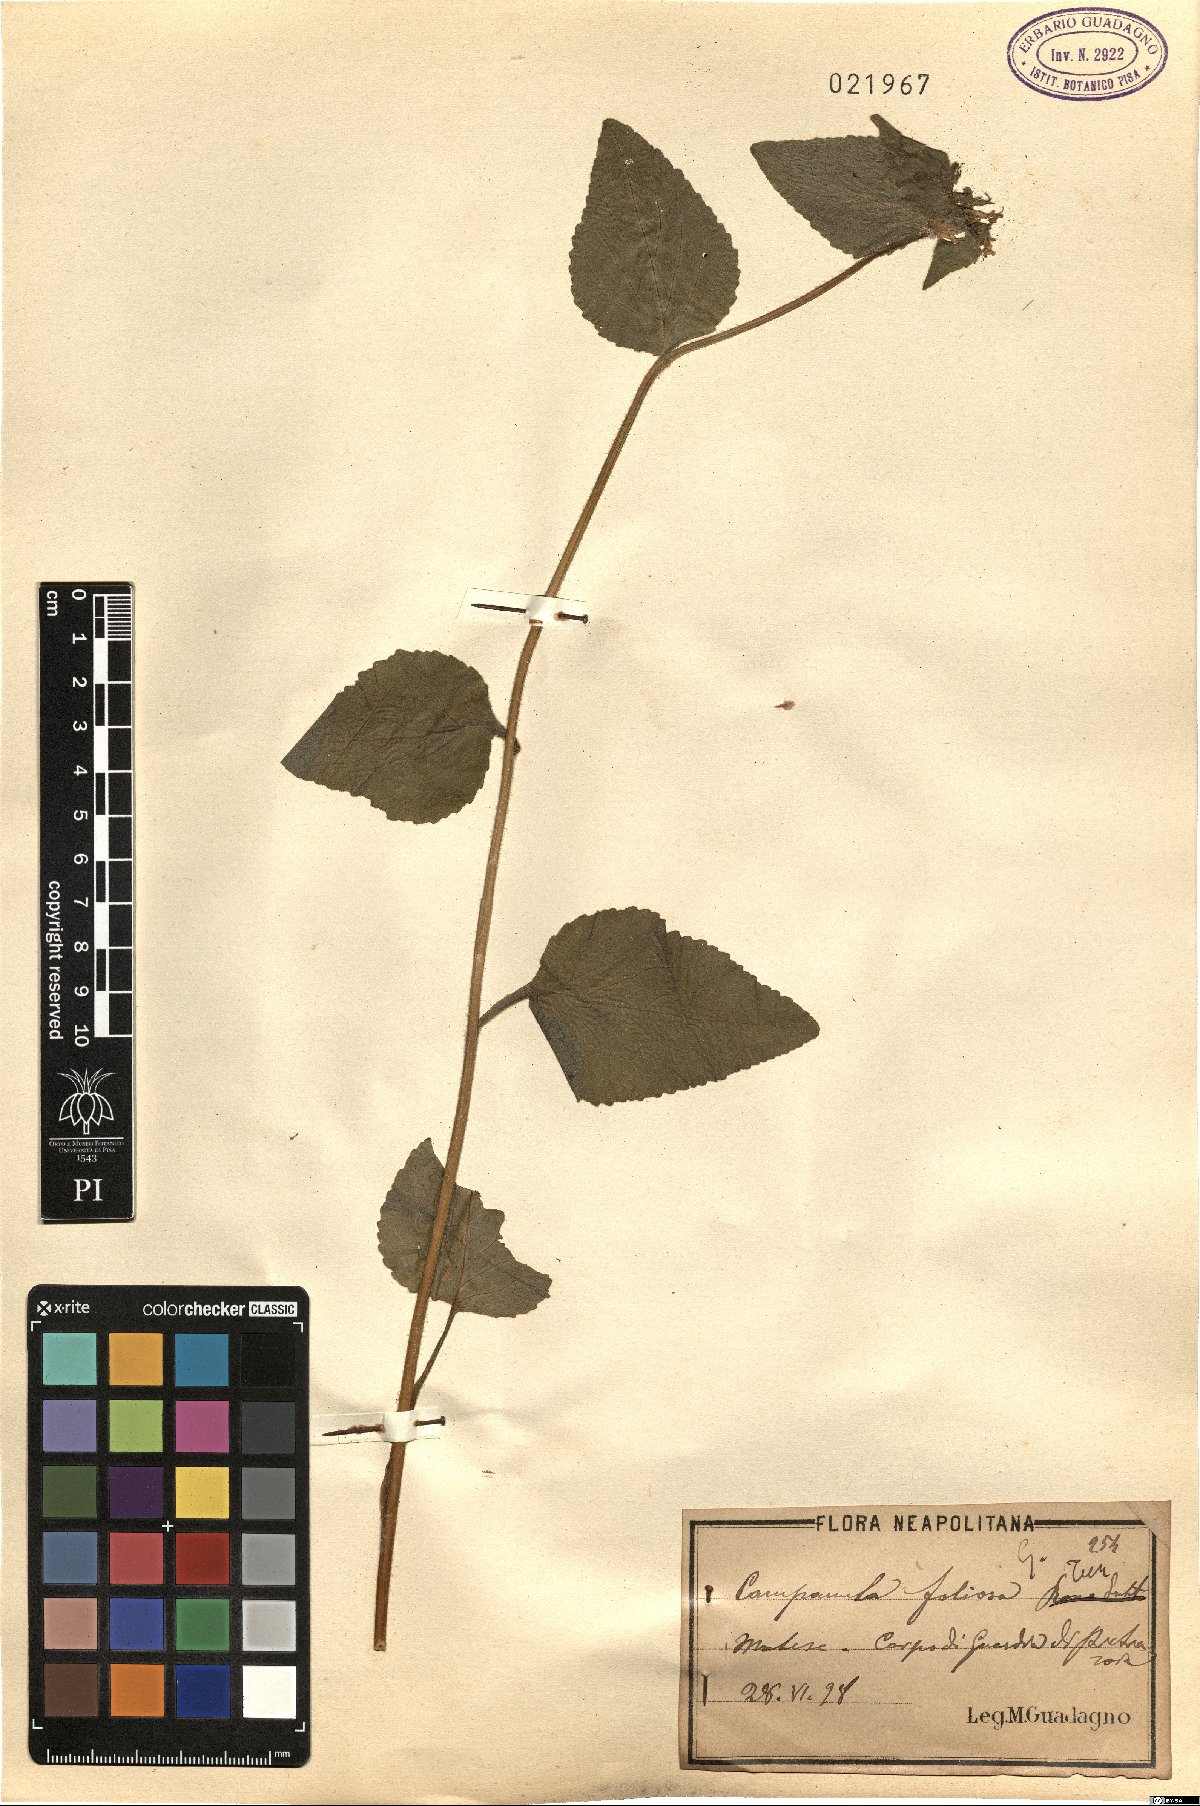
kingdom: Plantae
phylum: Tracheophyta
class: Magnoliopsida
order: Asterales
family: Campanulaceae
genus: Campanula
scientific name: Campanula foliosa
